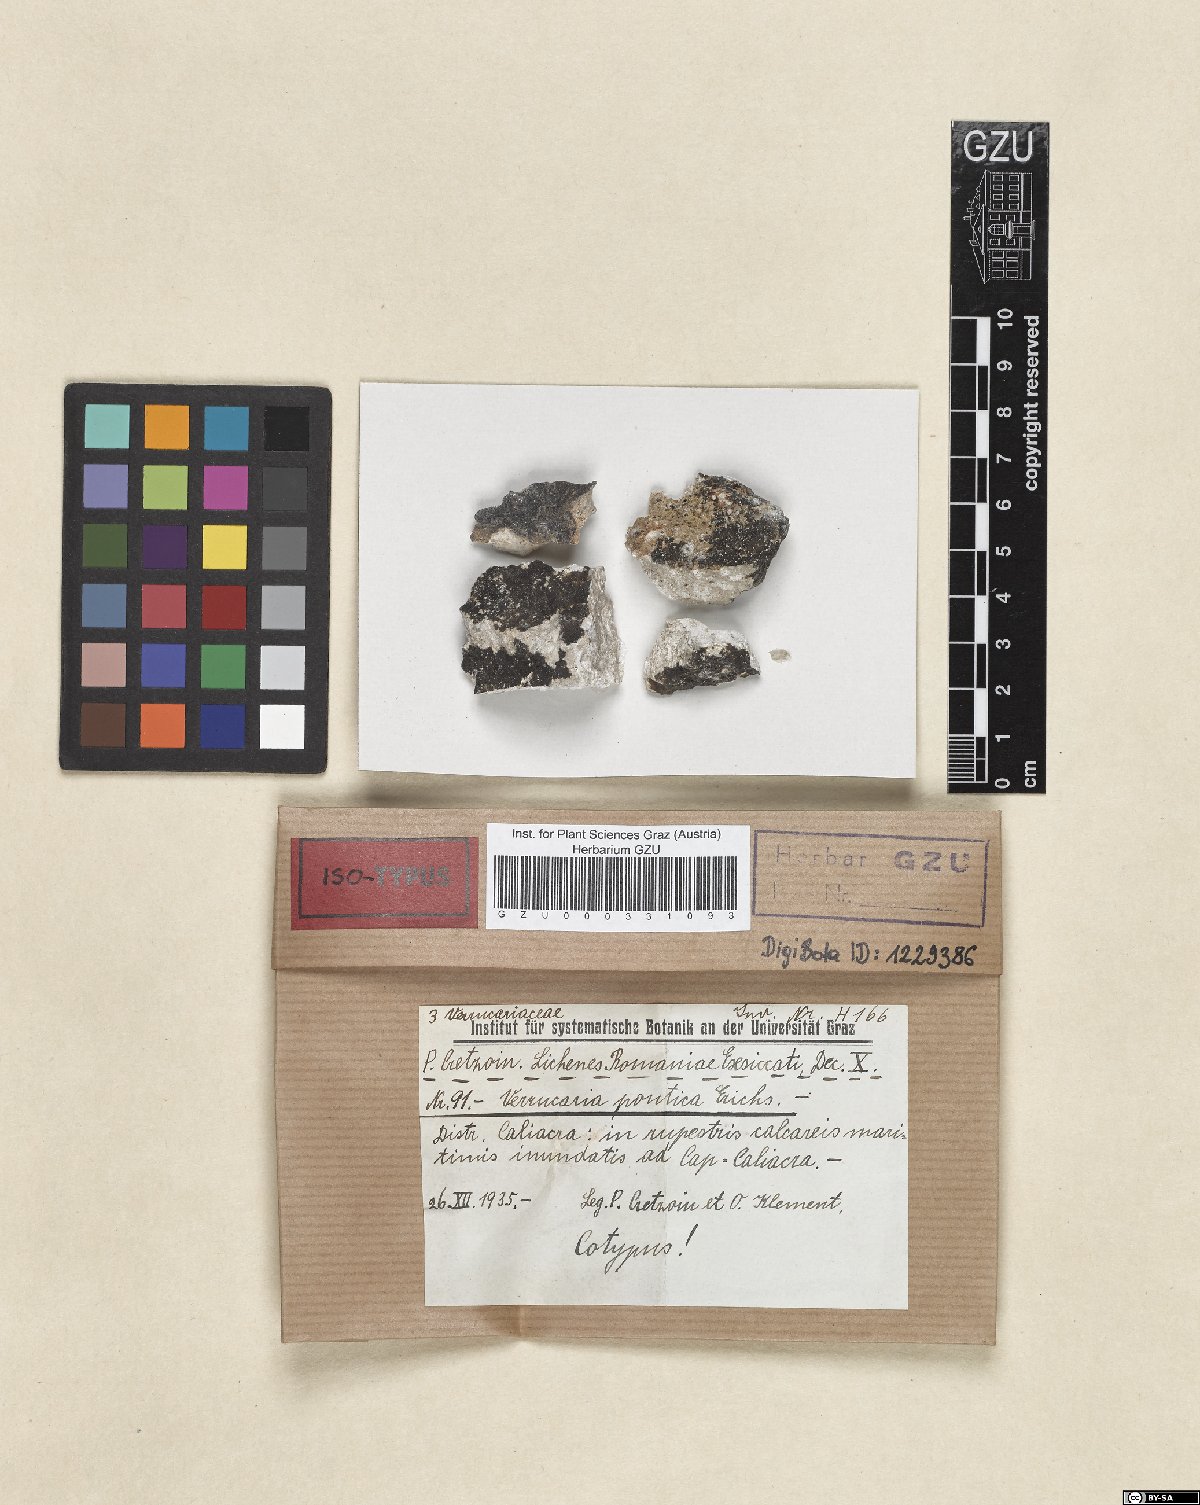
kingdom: Fungi
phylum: Ascomycota
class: Eurotiomycetes
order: Verrucariales
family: Verrucariaceae
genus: Verrucaria
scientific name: Verrucaria pontica
